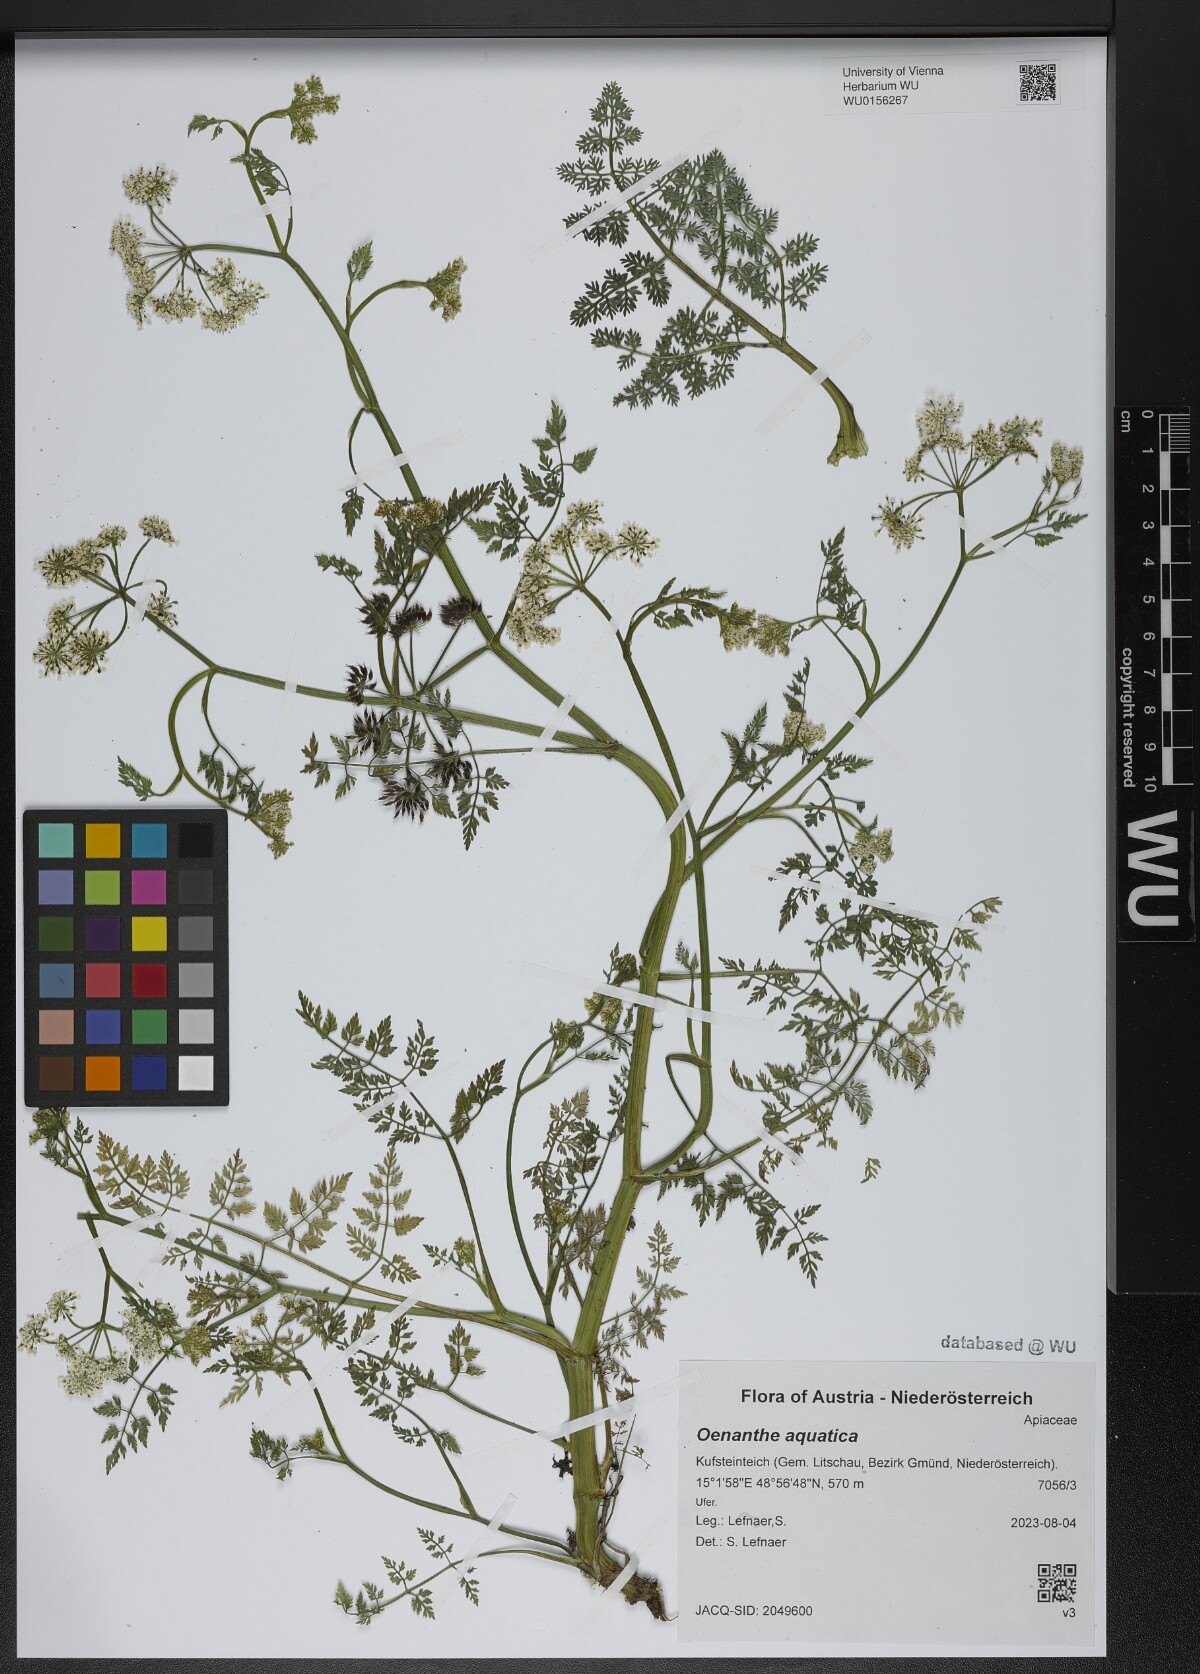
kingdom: Plantae
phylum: Tracheophyta
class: Magnoliopsida
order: Apiales
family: Apiaceae
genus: Oenanthe
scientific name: Oenanthe aquatica
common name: Fine-leaved water-dropwort
